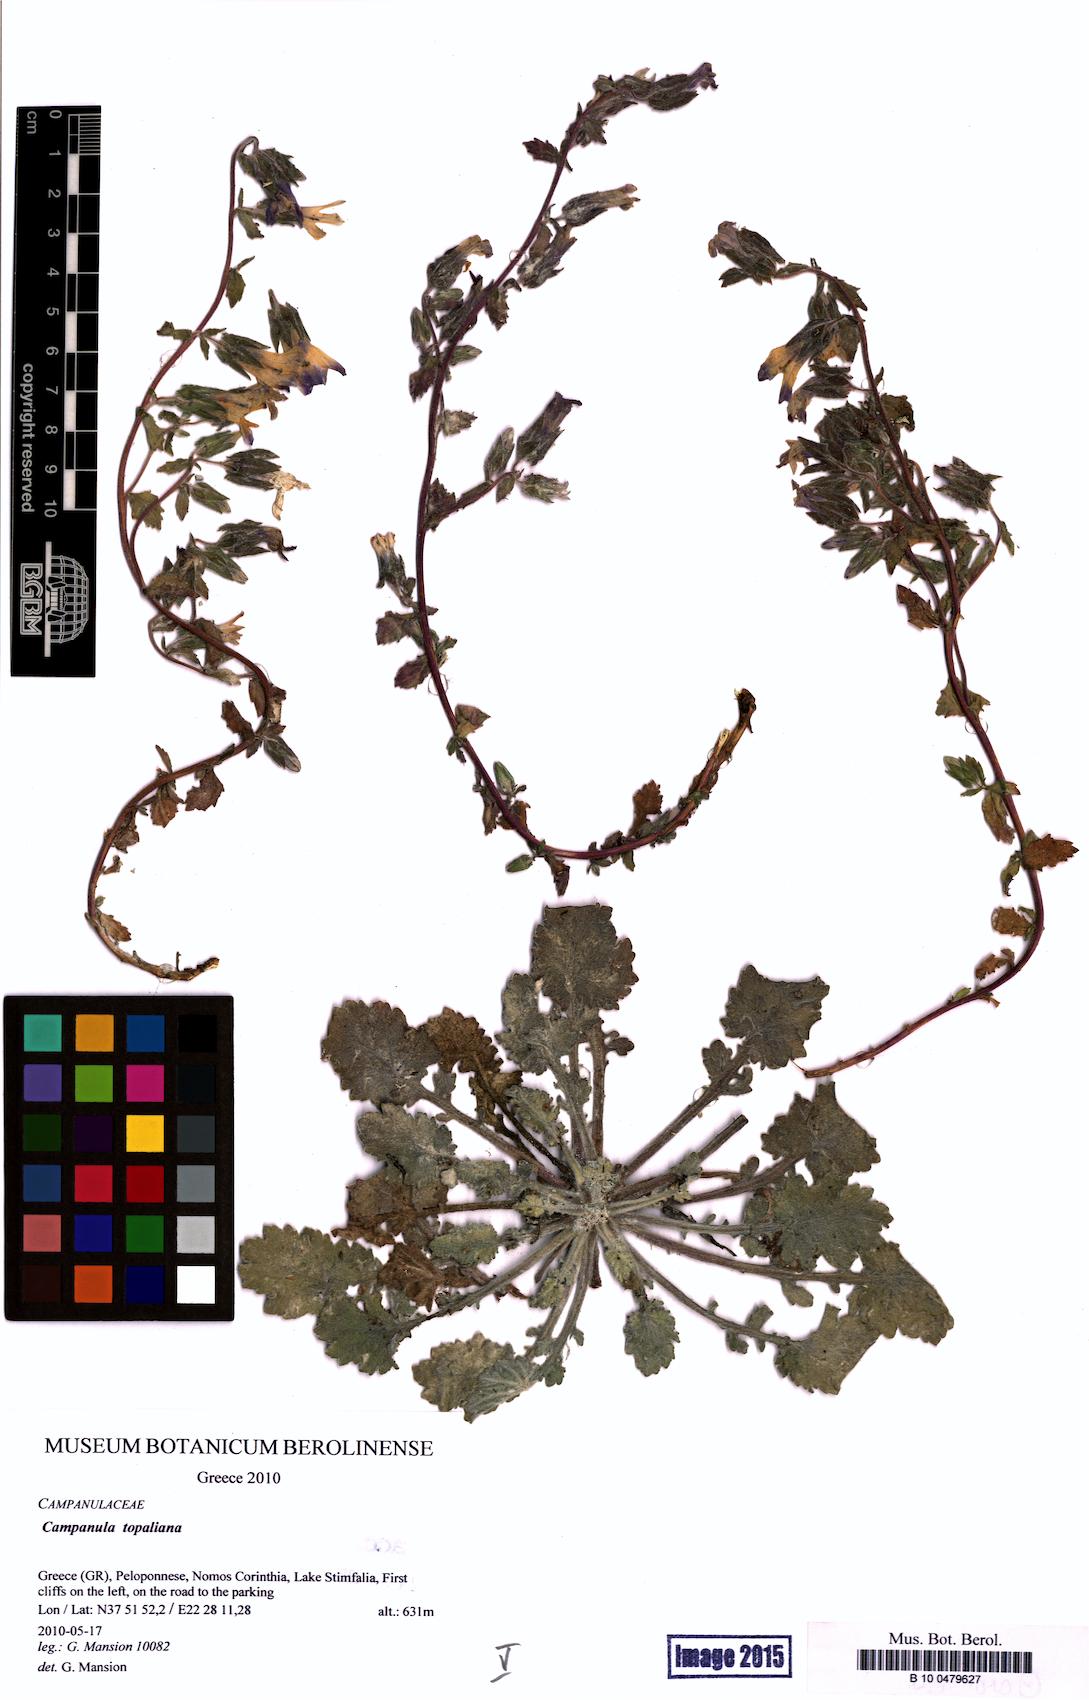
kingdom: Plantae
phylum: Tracheophyta
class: Magnoliopsida
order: Asterales
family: Campanulaceae
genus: Campanula
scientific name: Campanula topaliana
